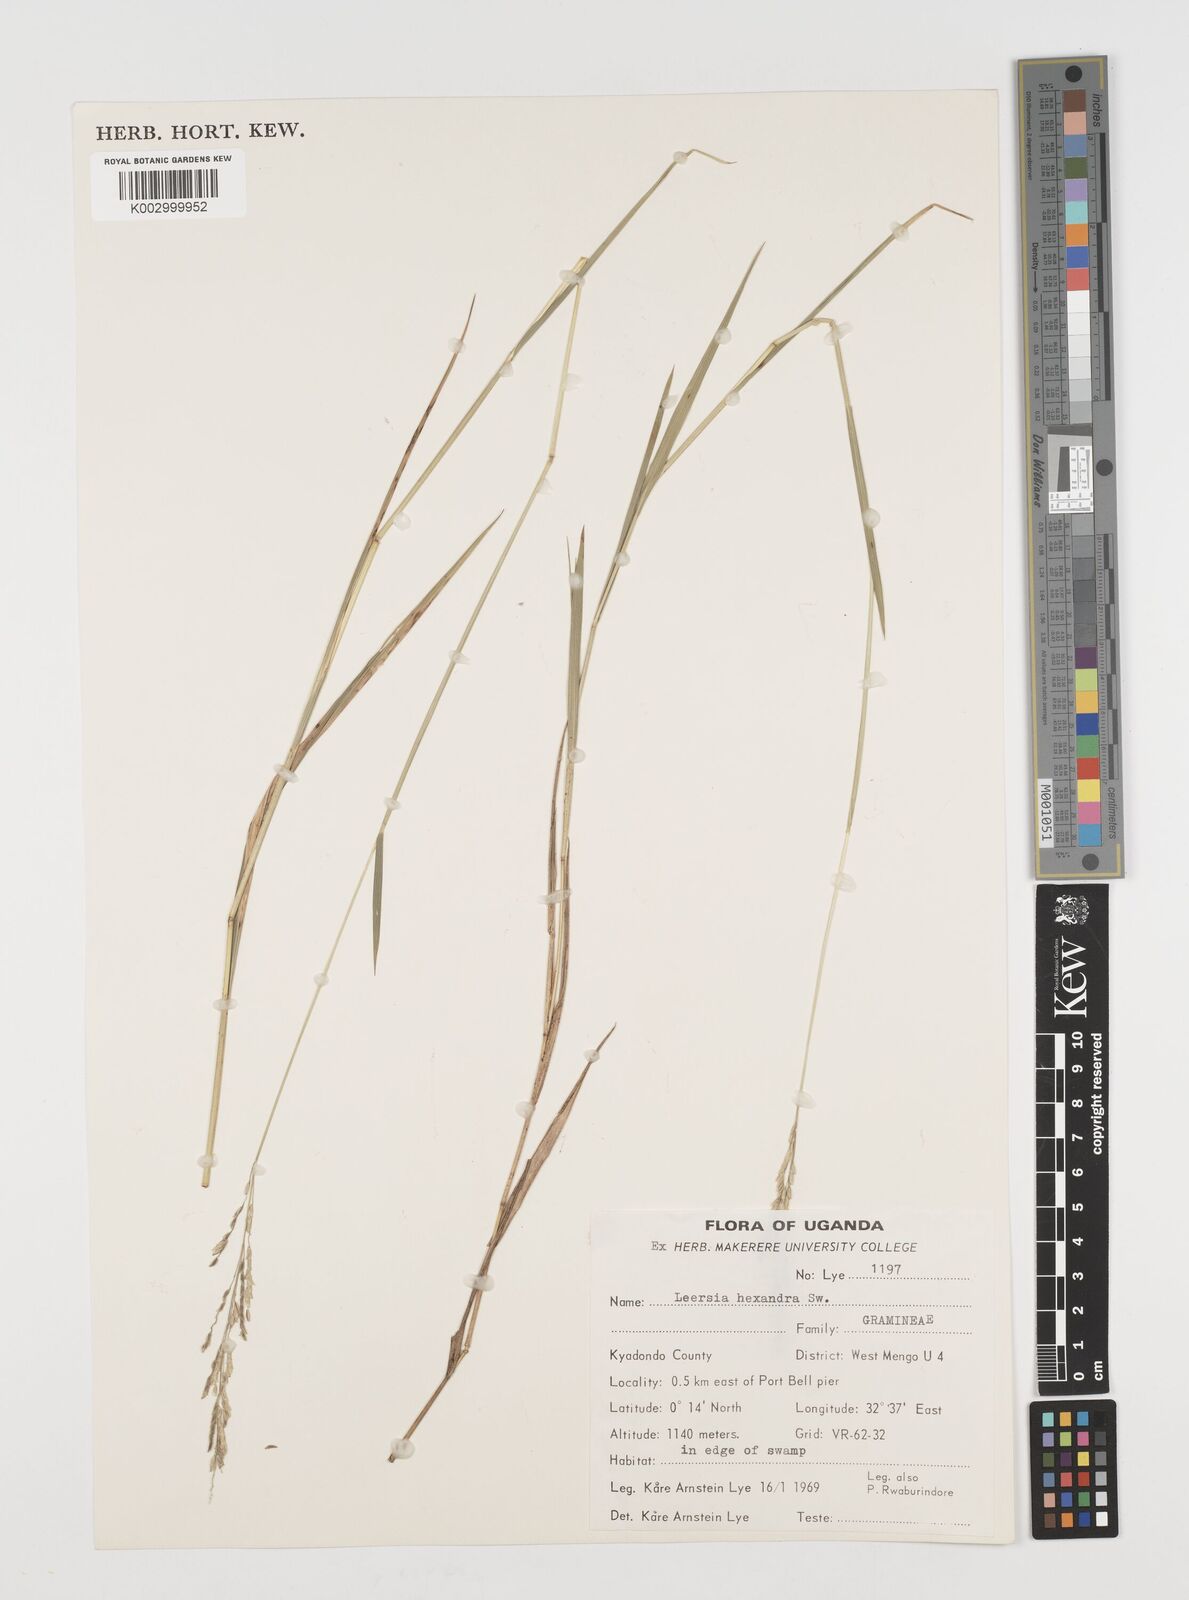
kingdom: Plantae
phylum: Tracheophyta
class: Liliopsida
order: Poales
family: Poaceae
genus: Leersia
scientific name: Leersia hexandra
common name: Southern cut grass
